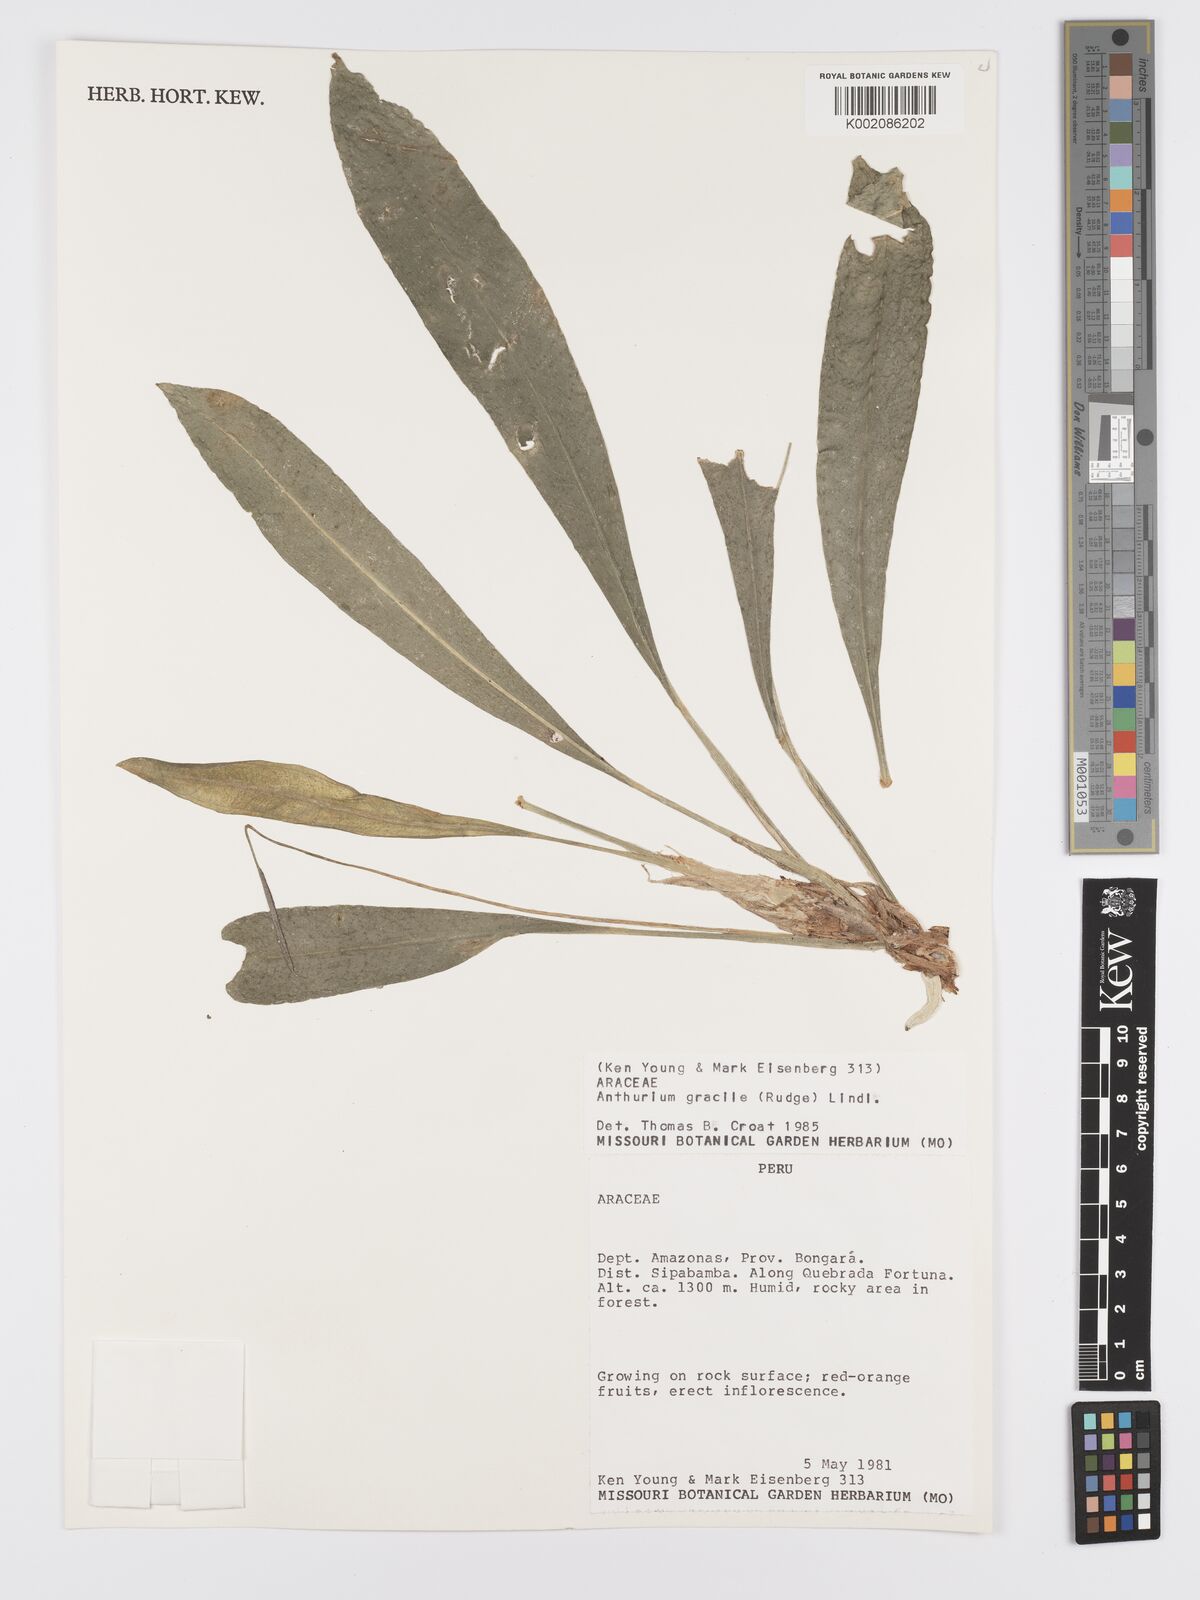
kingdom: Plantae
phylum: Tracheophyta
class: Liliopsida
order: Alismatales
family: Araceae
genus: Anthurium
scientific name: Anthurium gracile
